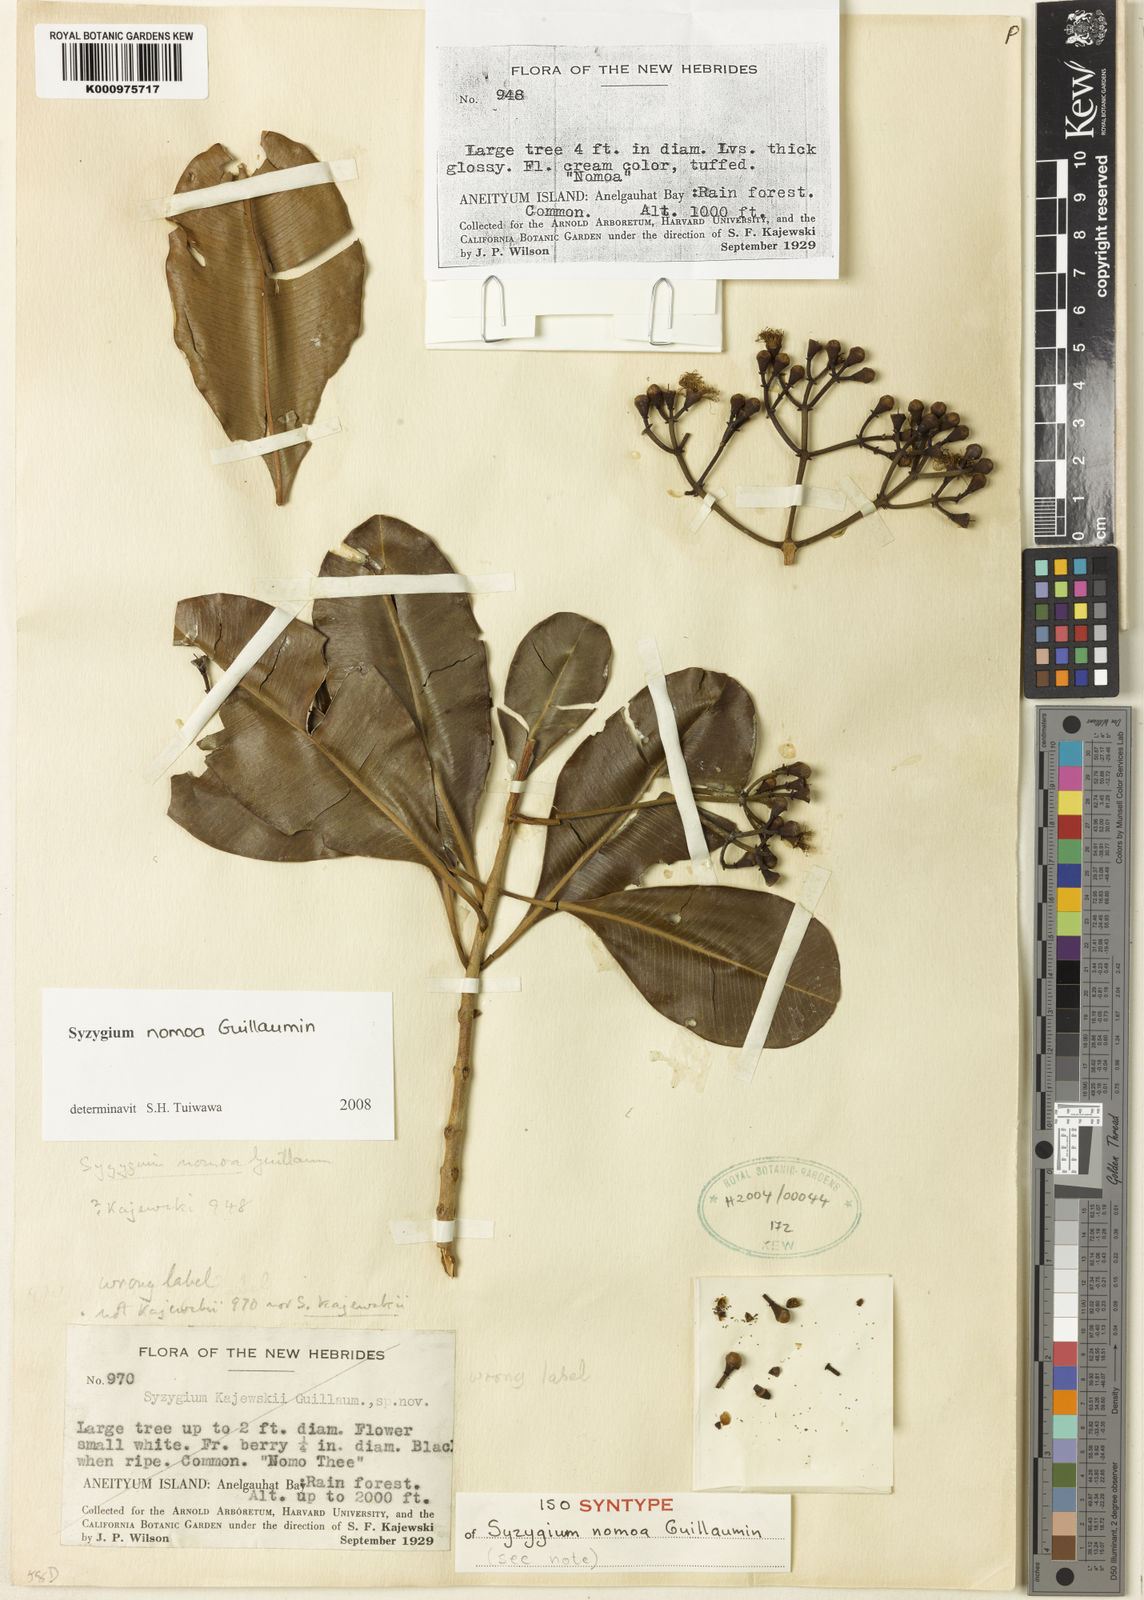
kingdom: Plantae
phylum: Tracheophyta
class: Magnoliopsida
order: Myrtales
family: Myrtaceae
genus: Syzygium
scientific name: Syzygium nomoa
